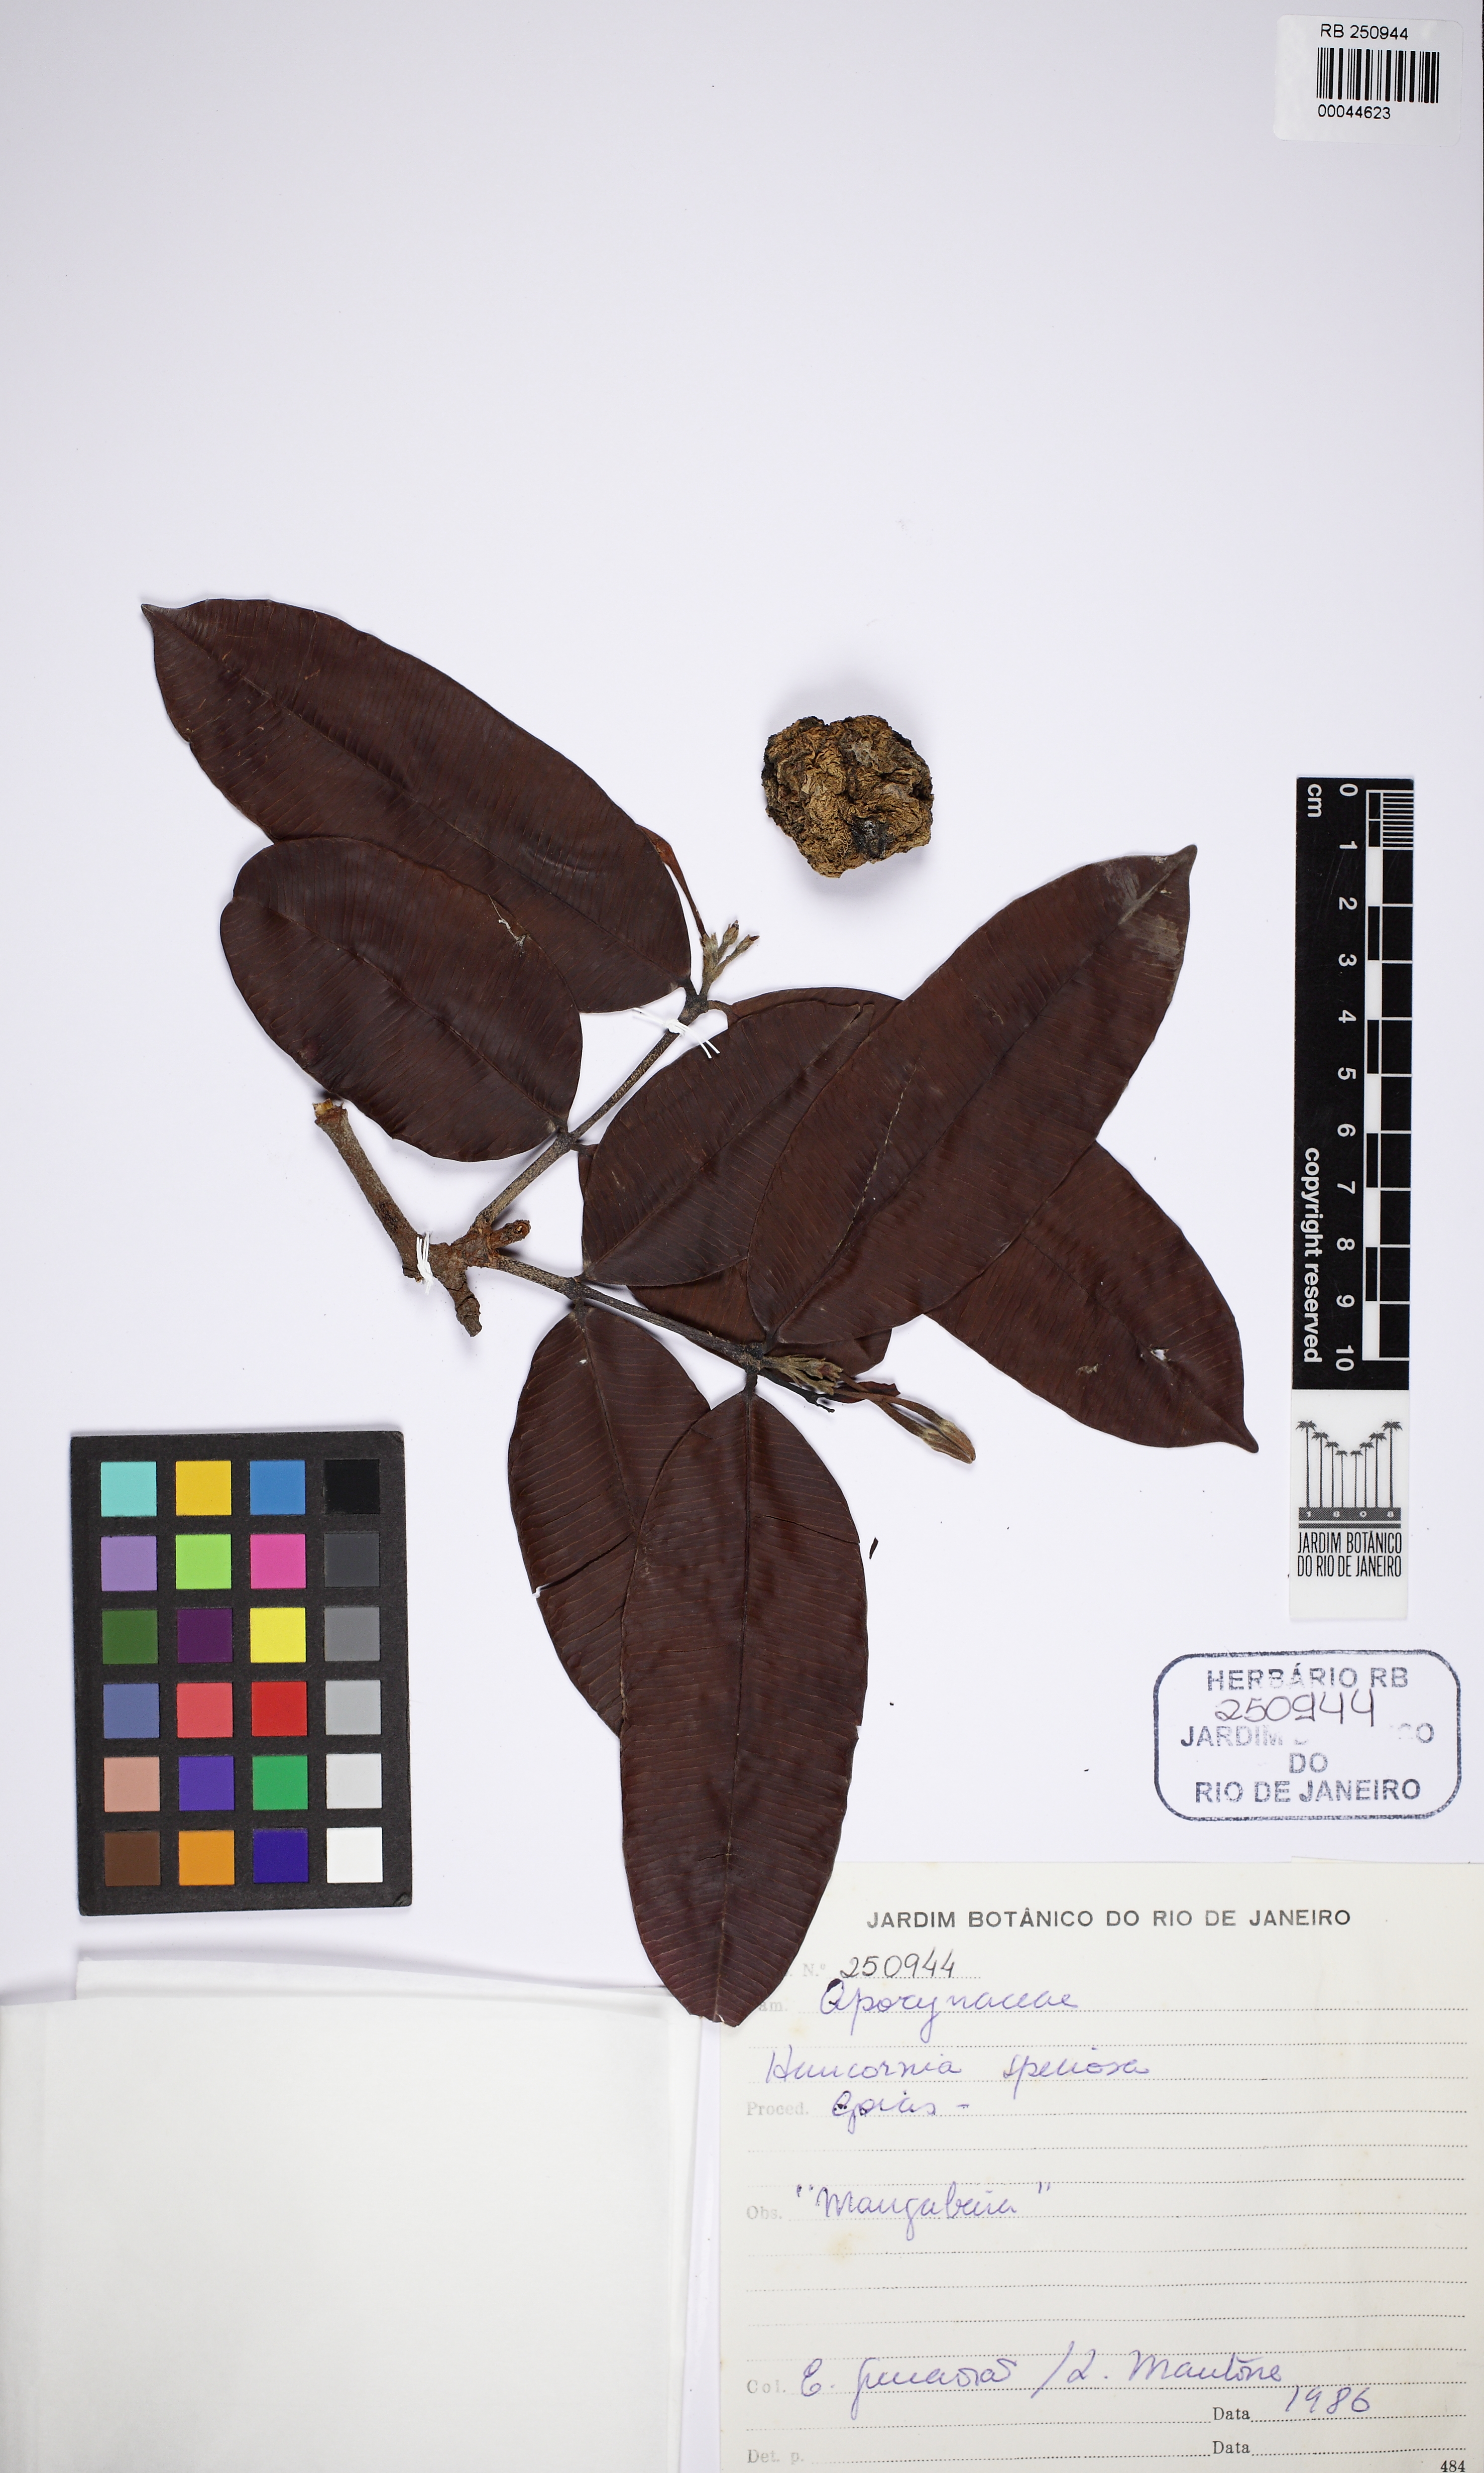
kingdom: Plantae
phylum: Tracheophyta
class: Magnoliopsida
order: Gentianales
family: Apocynaceae
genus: Hancornia
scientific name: Hancornia speciosa
